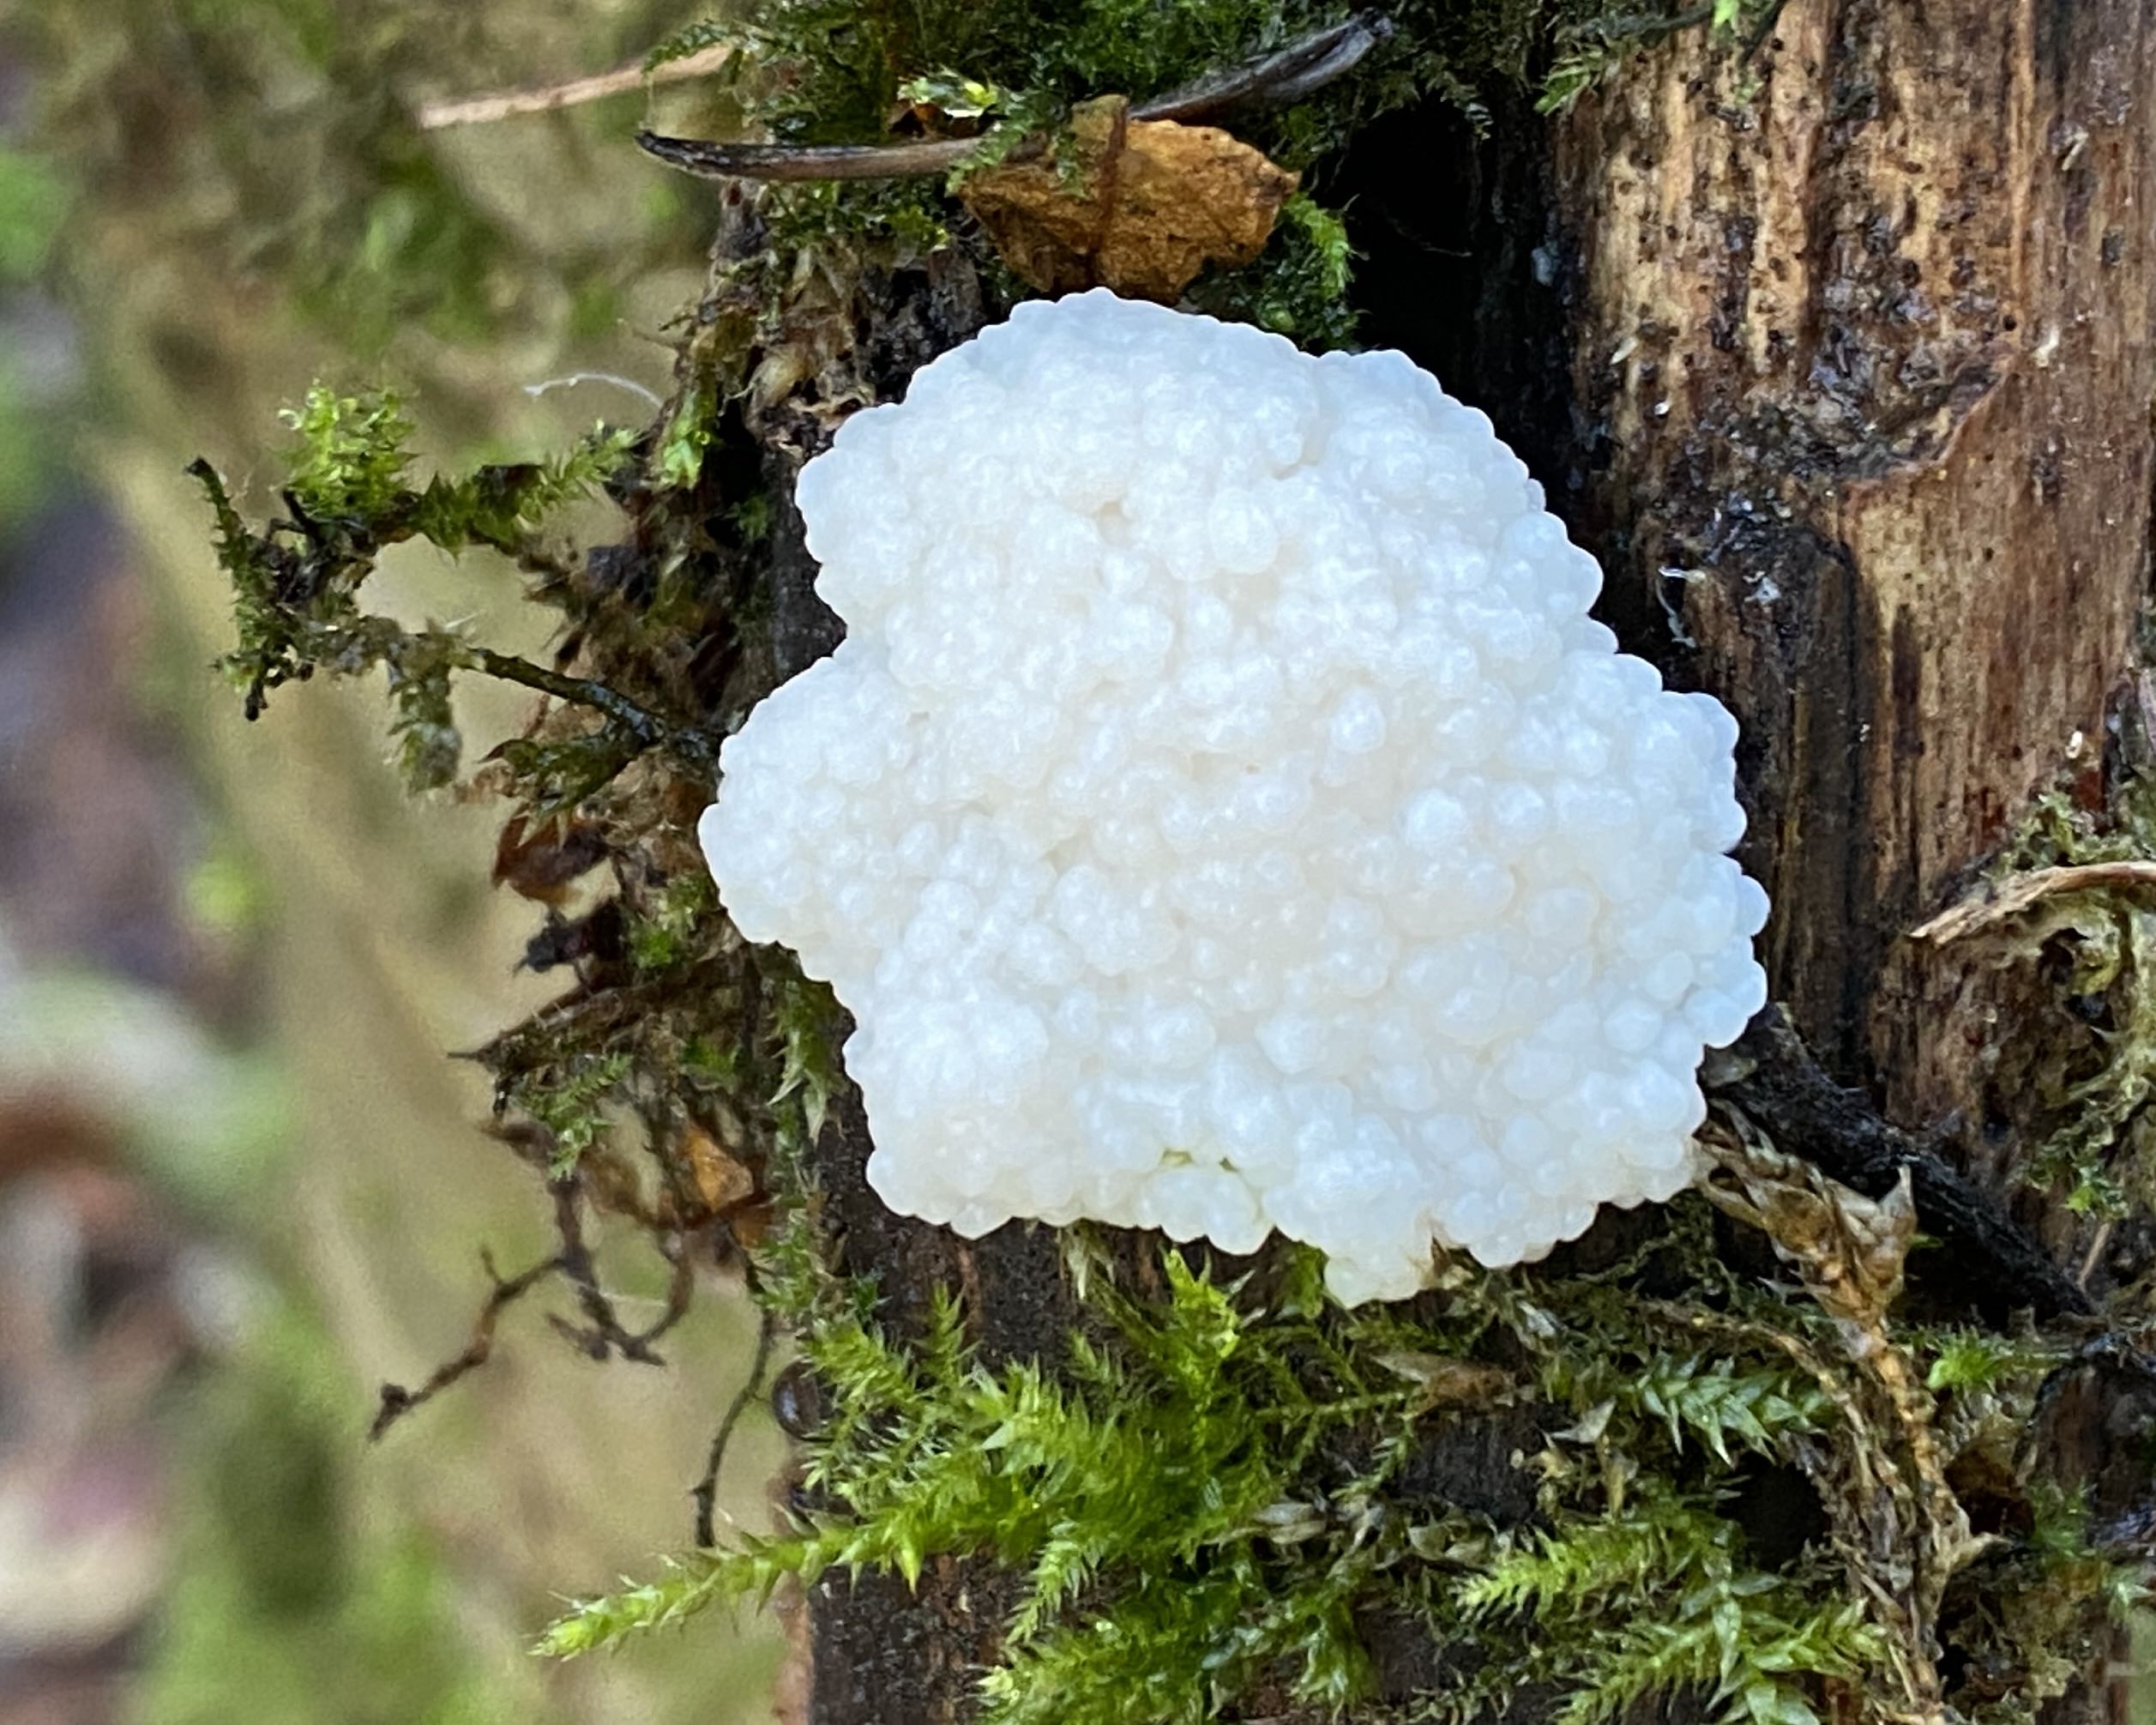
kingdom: Protozoa
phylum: Mycetozoa
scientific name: Mycetozoa
